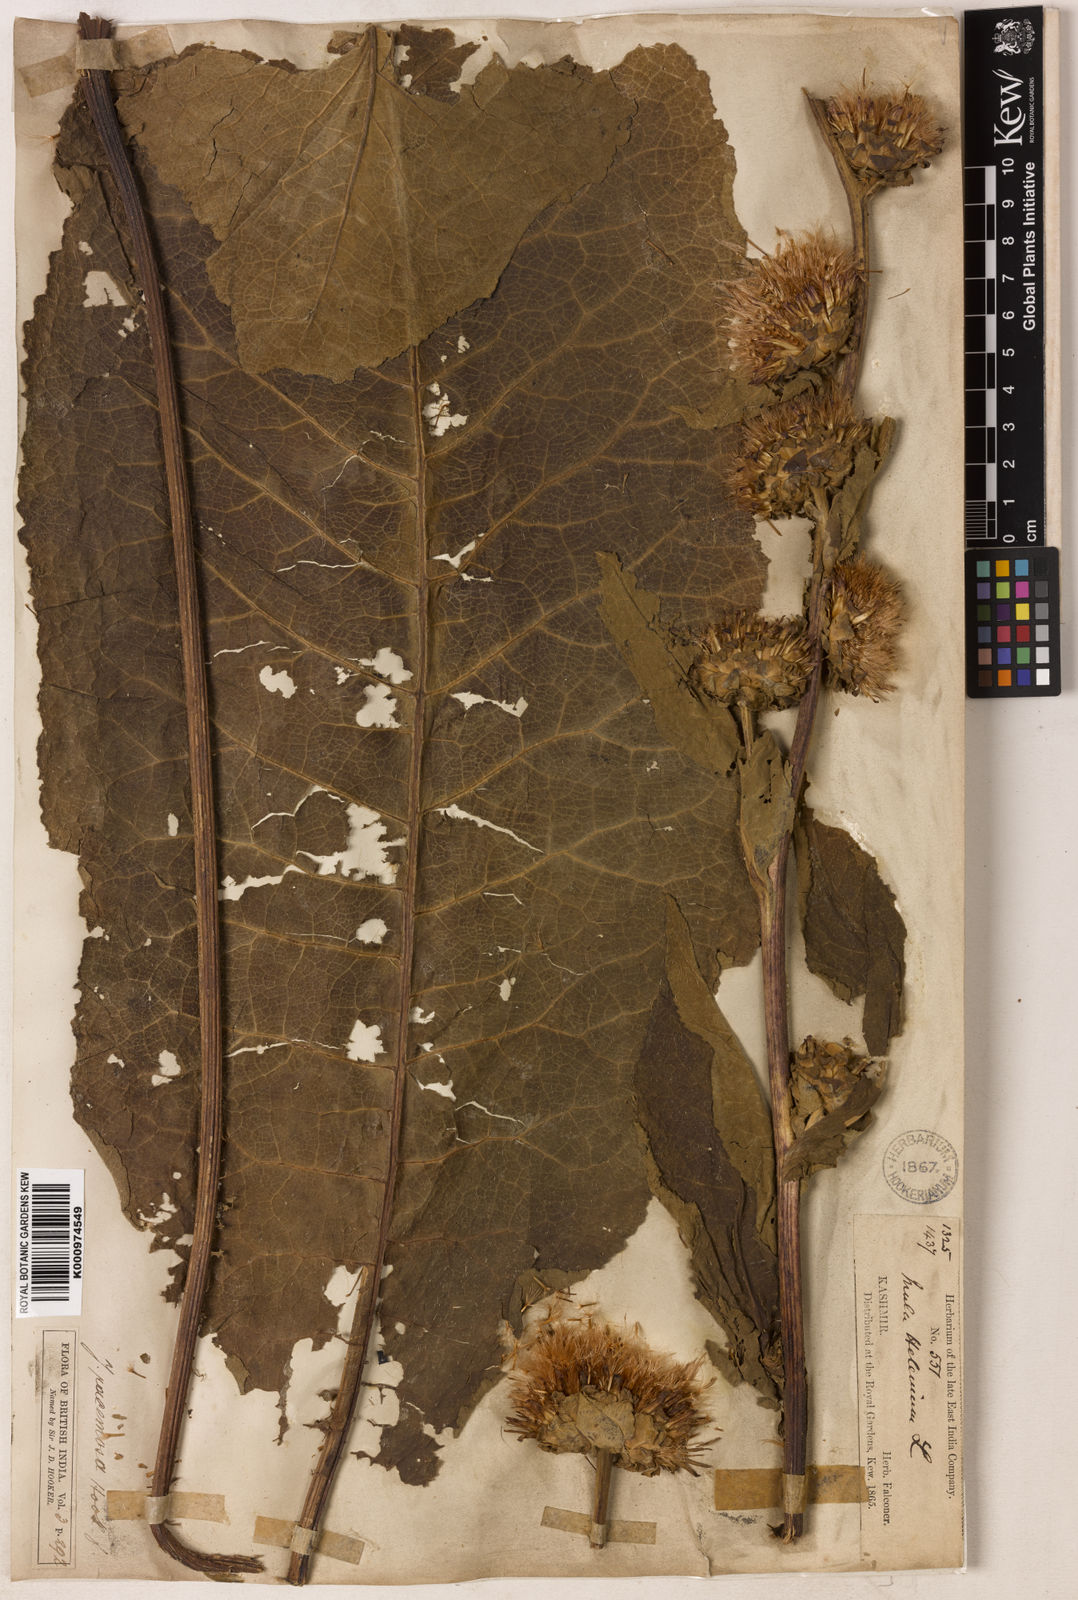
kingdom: Plantae
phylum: Tracheophyta
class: Magnoliopsida
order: Asterales
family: Asteraceae
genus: Inula
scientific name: Inula racemosa
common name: Indian elecampane
